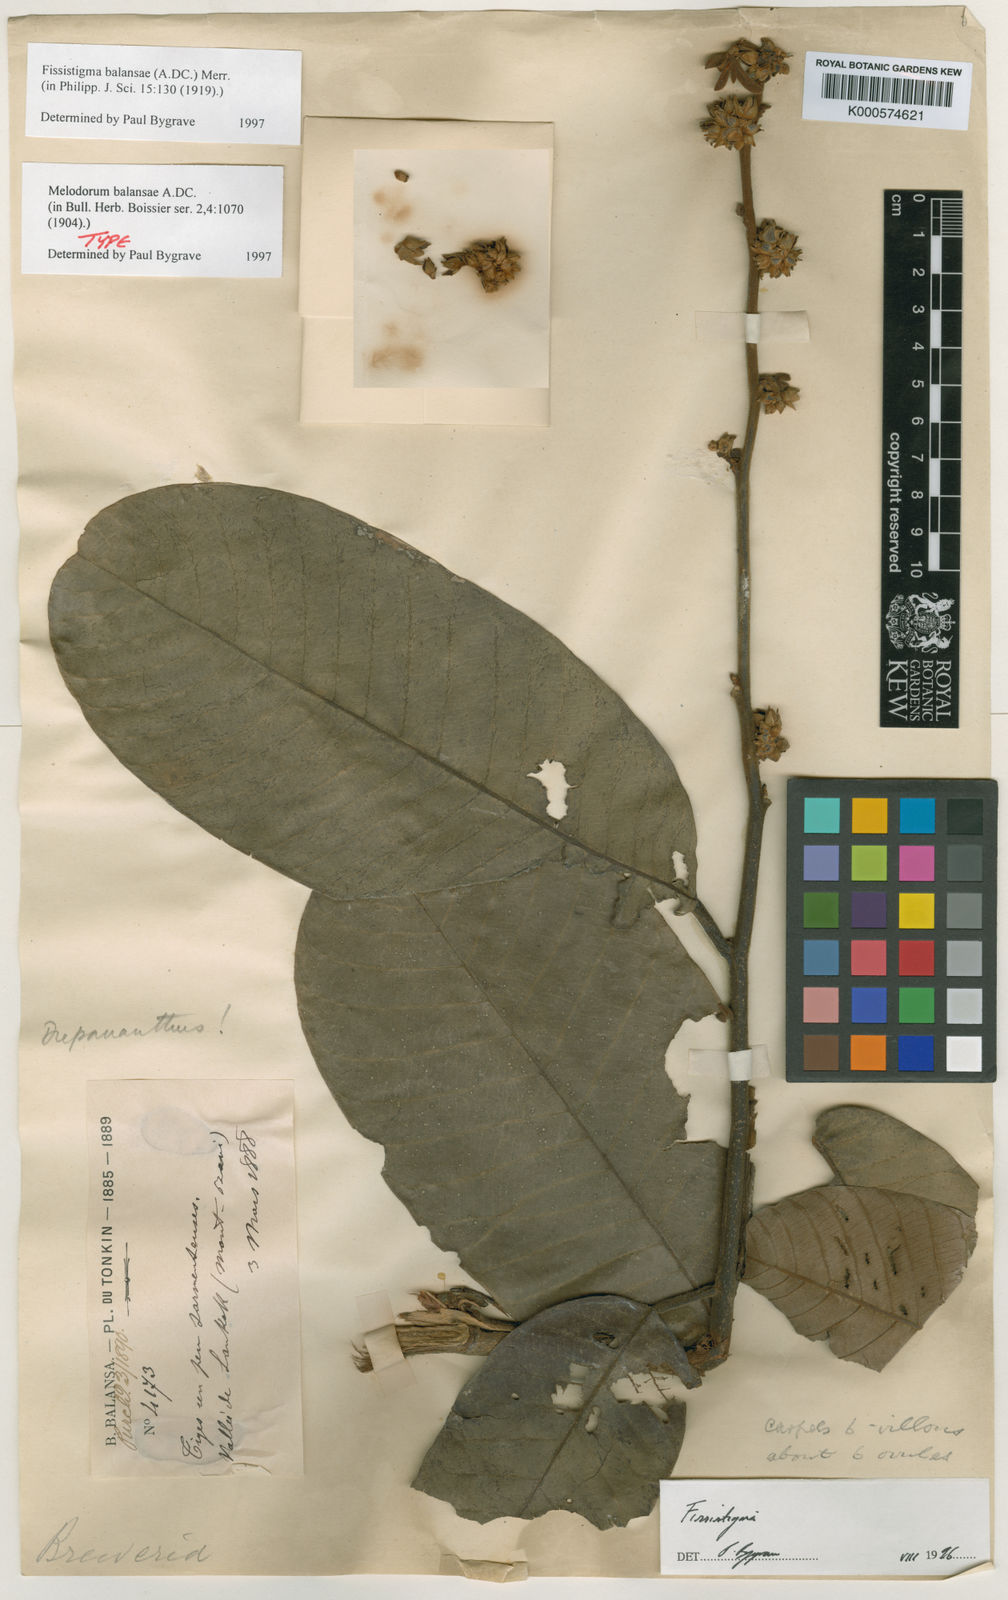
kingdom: Plantae
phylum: Tracheophyta
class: Magnoliopsida
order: Magnoliales
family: Annonaceae
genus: Fissistigma
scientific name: Fissistigma balansae
